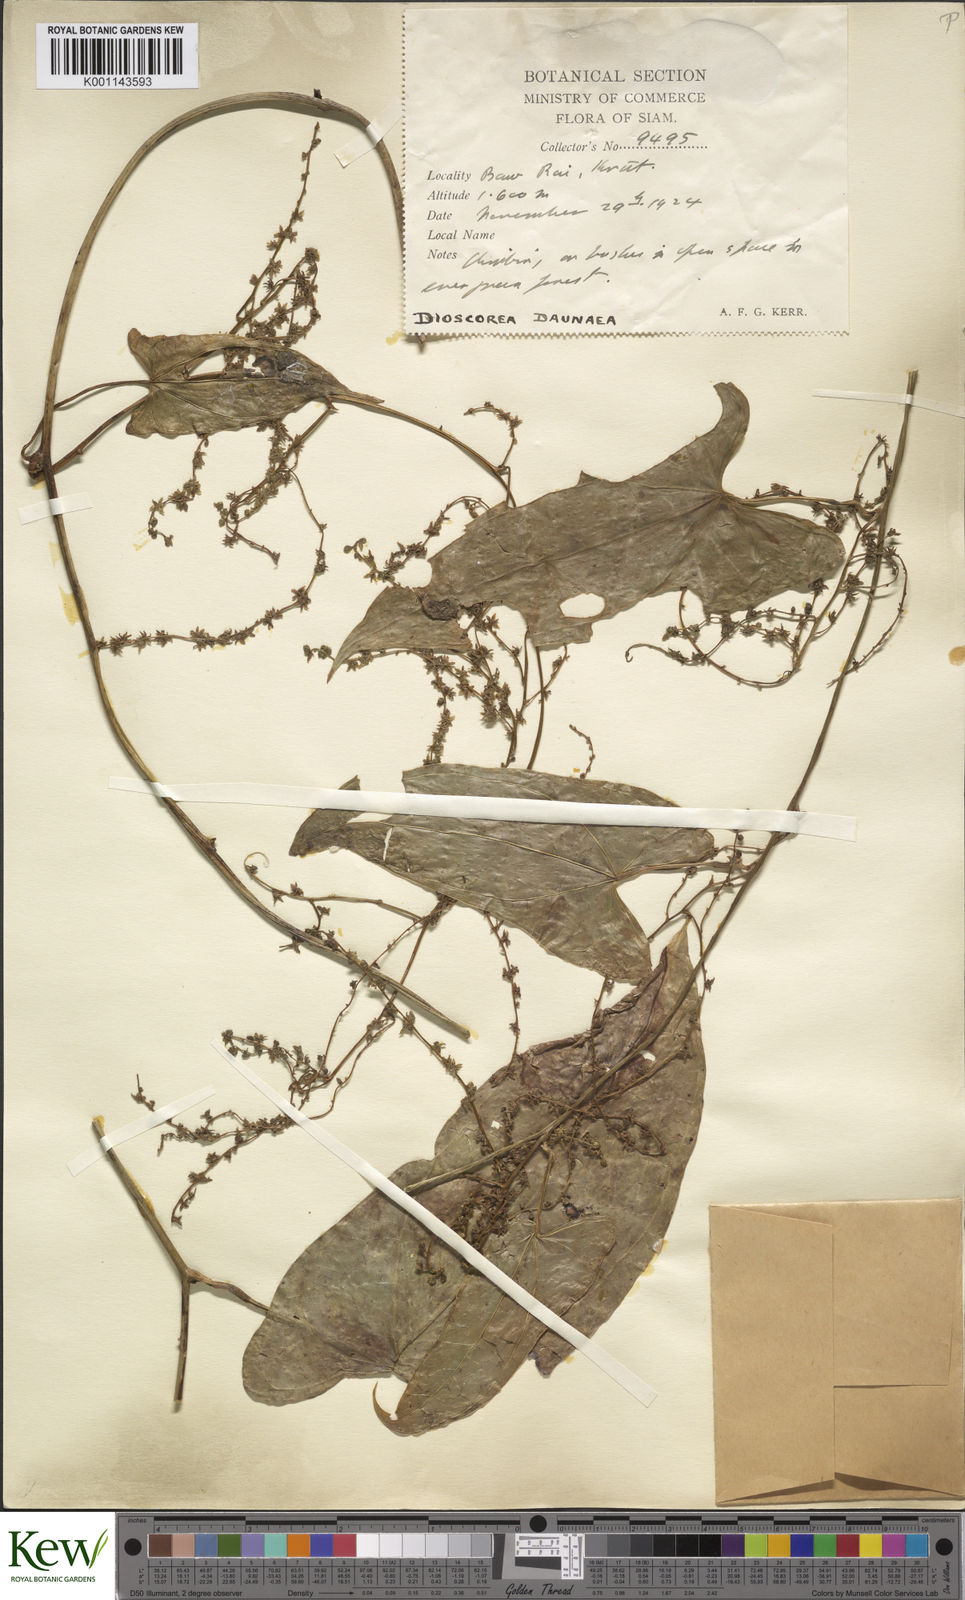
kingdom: Plantae
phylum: Tracheophyta
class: Liliopsida
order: Dioscoreales
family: Dioscoreaceae
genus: Dioscorea
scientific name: Dioscorea daunea
